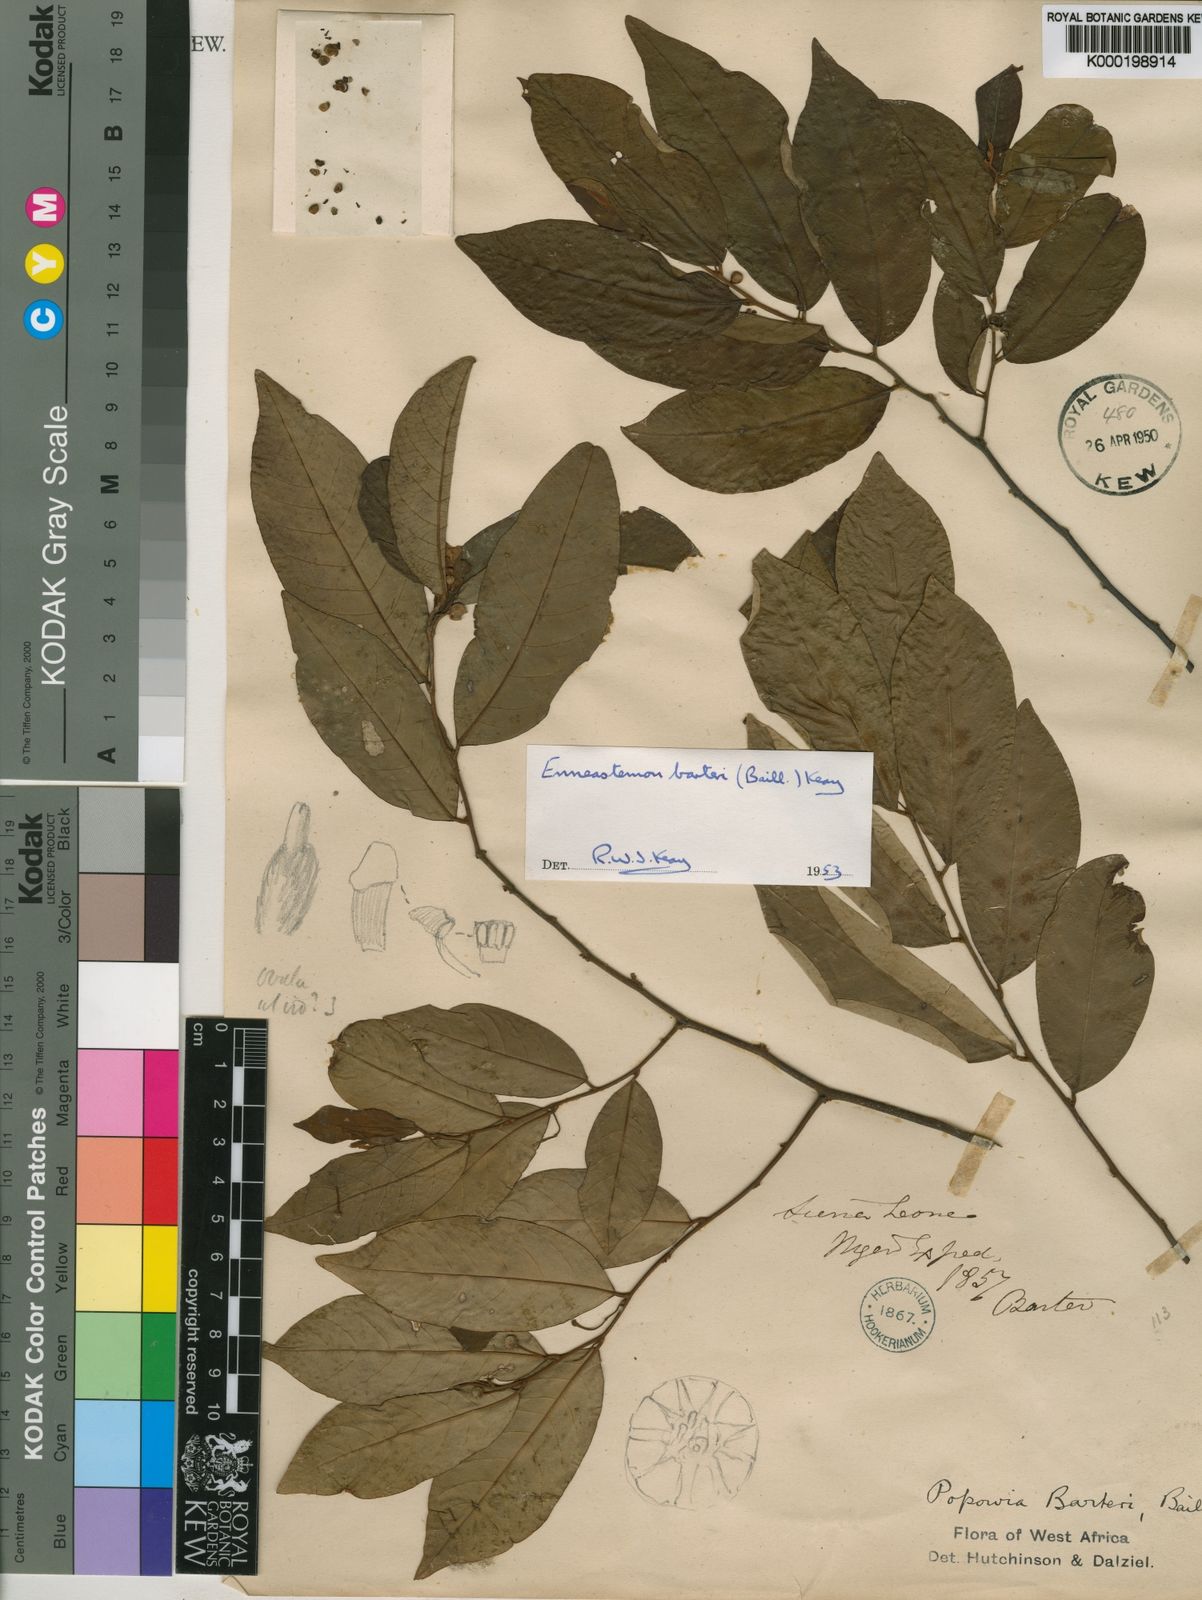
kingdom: Plantae
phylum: Tracheophyta
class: Magnoliopsida
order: Magnoliales
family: Annonaceae
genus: Monanthotaxis
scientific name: Monanthotaxis barteri
